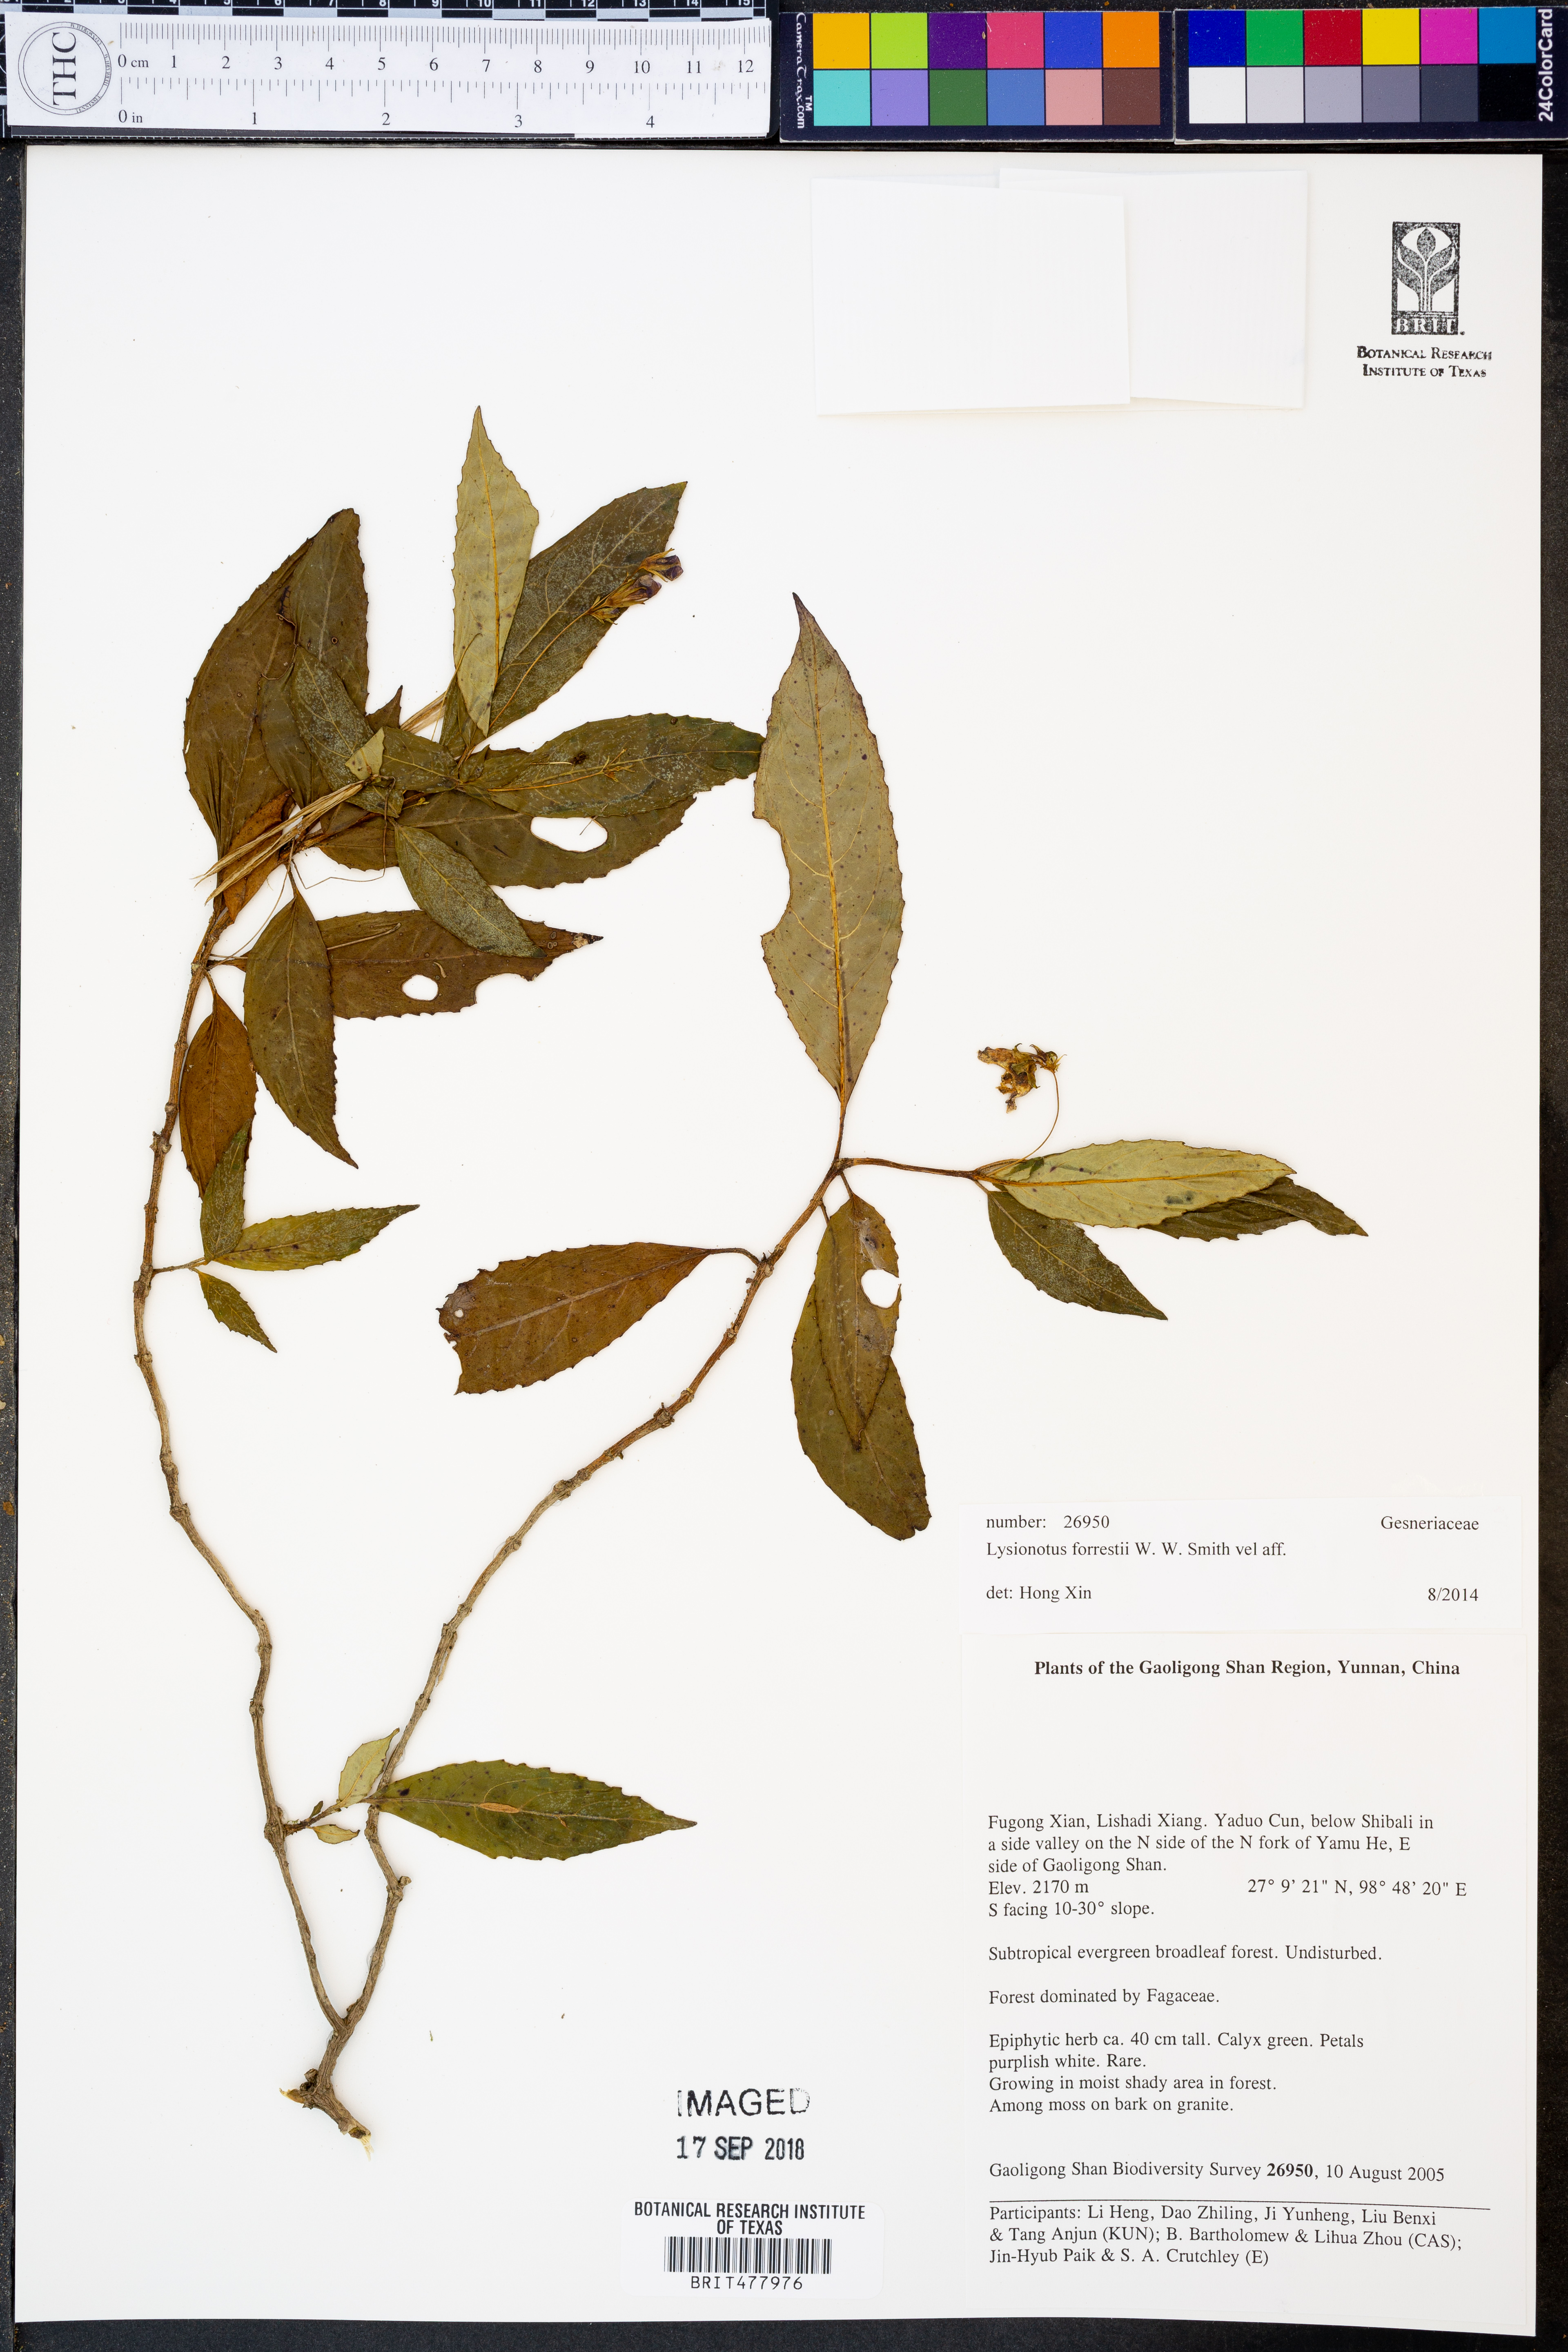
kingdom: Plantae
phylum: Tracheophyta
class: Magnoliopsida
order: Lamiales
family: Gesneriaceae
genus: Lysionotus
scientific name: Lysionotus forrestii
